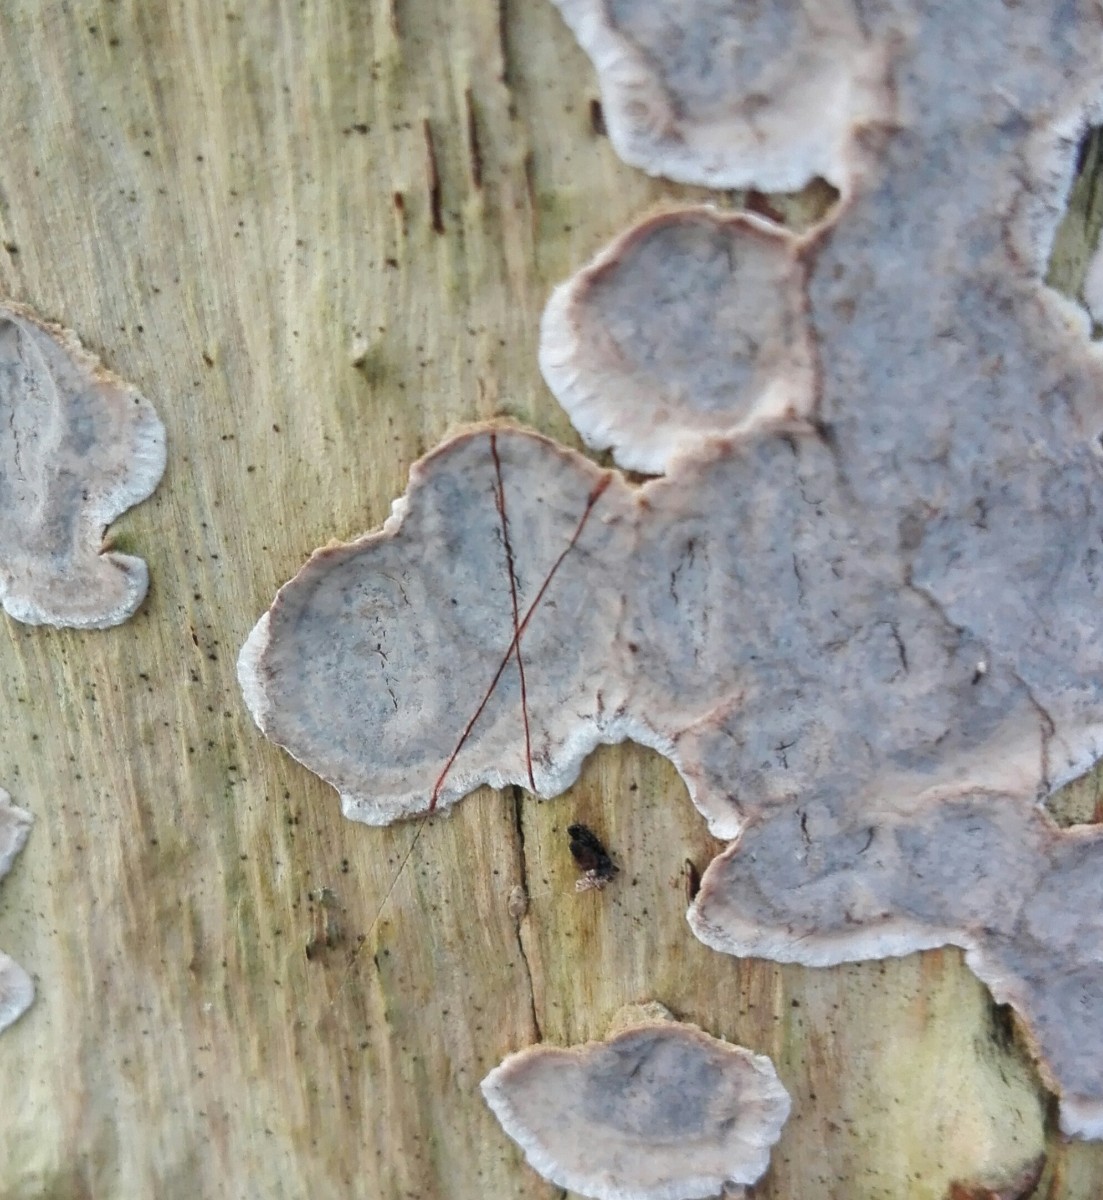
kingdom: Fungi
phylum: Basidiomycota
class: Agaricomycetes
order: Russulales
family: Stereaceae
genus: Stereum
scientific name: Stereum rugosum
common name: rynket lædersvamp
